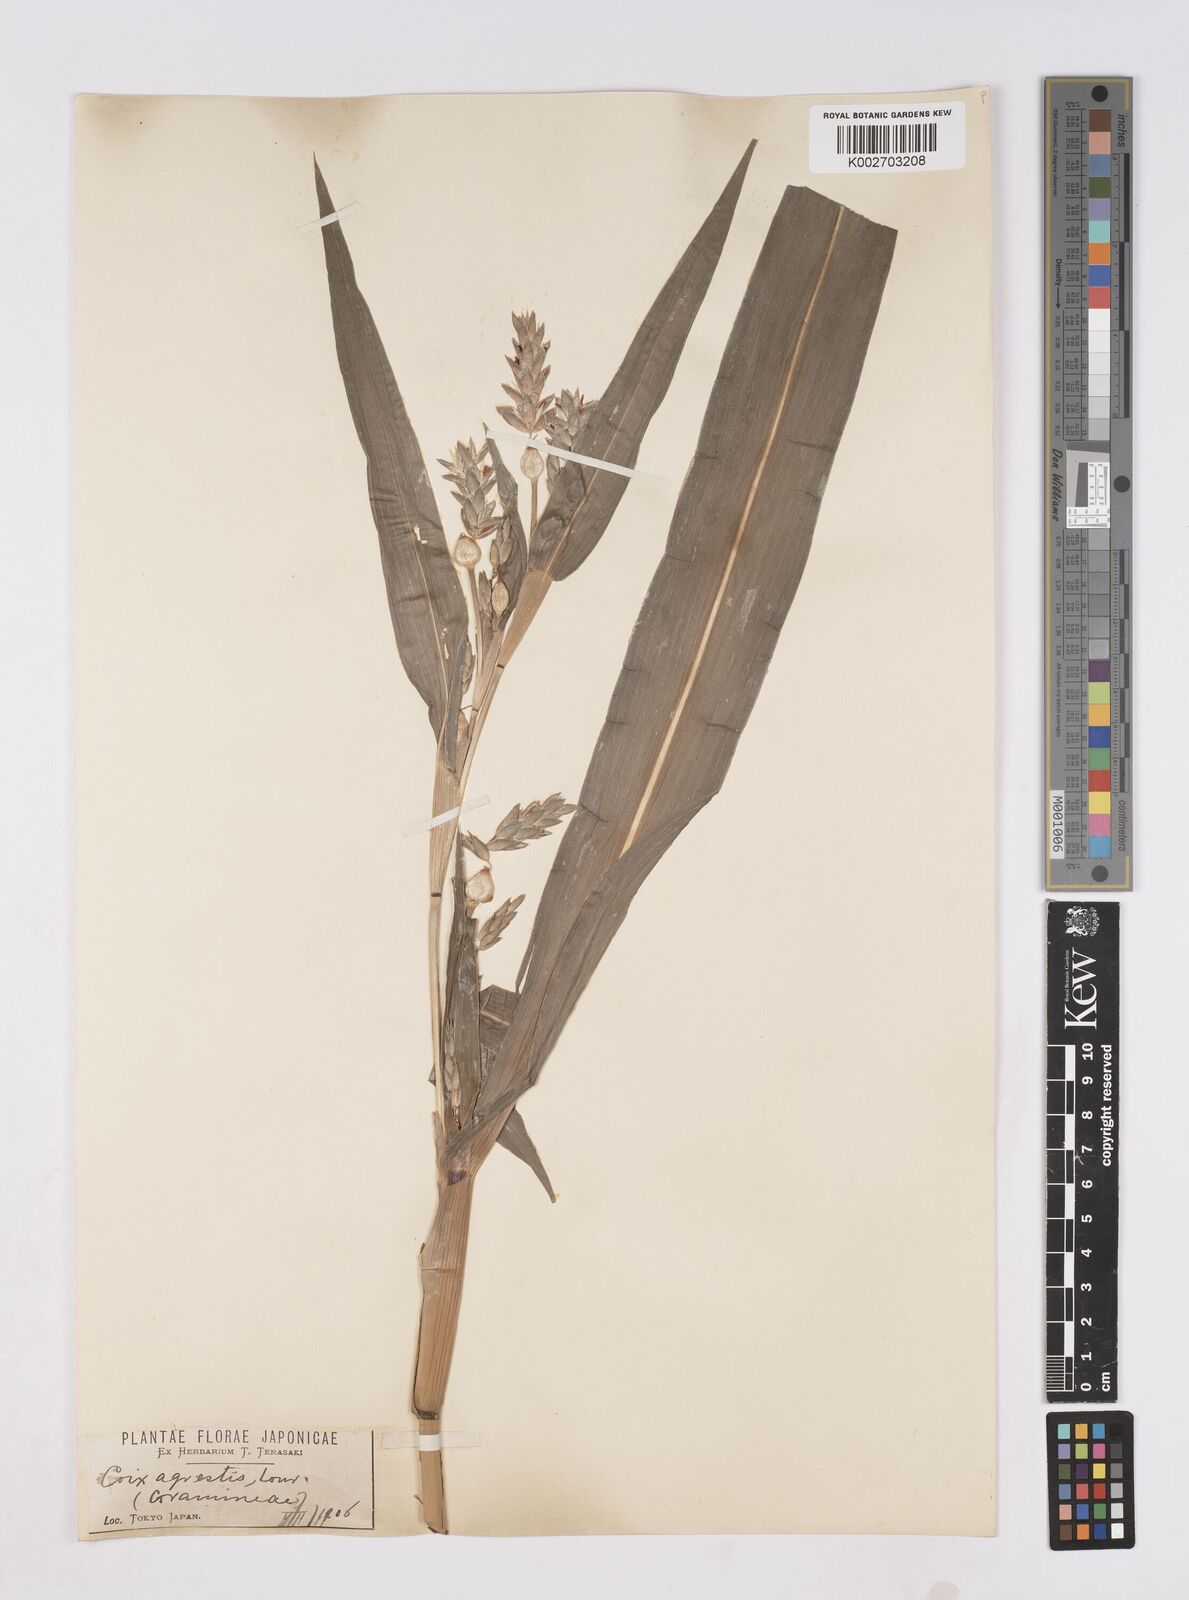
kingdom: Plantae
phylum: Tracheophyta
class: Liliopsida
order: Poales
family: Poaceae
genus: Coix
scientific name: Coix lacryma-jobi
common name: Job's tears
